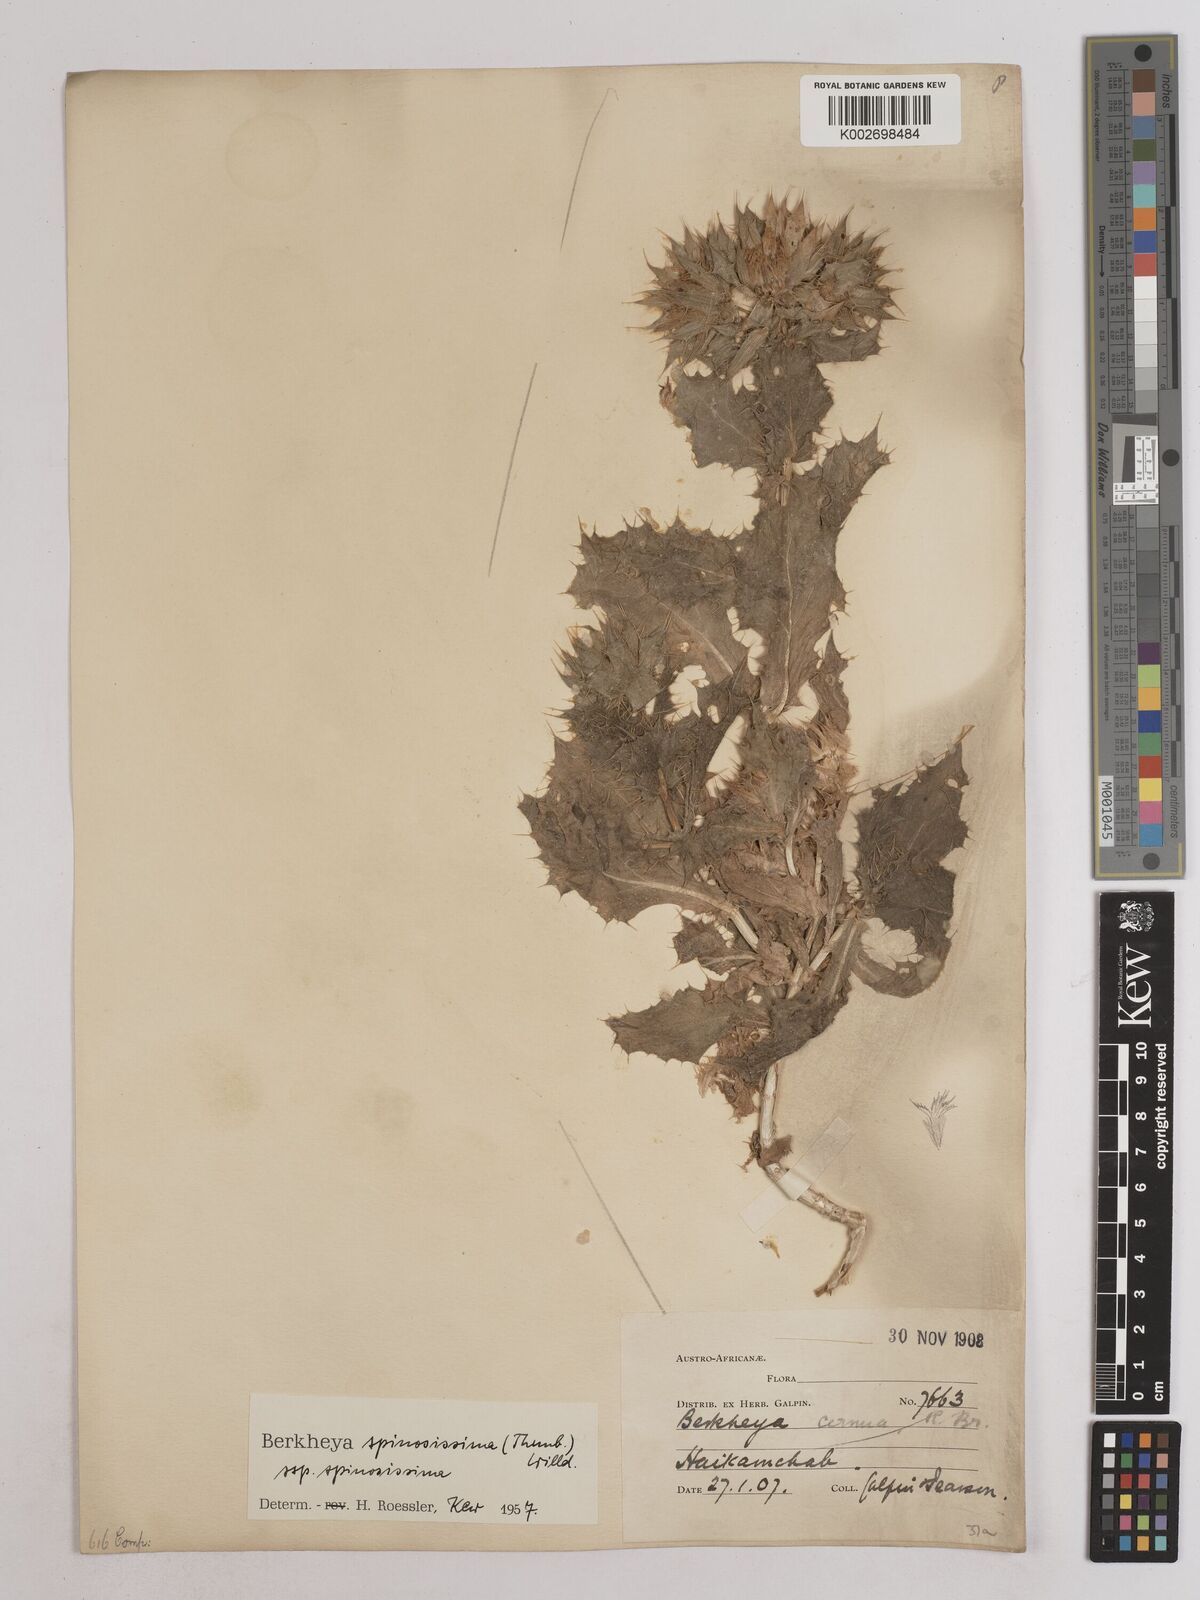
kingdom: Plantae
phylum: Tracheophyta
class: Magnoliopsida
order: Asterales
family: Asteraceae
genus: Berkheya
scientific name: Berkheya spinosissima
